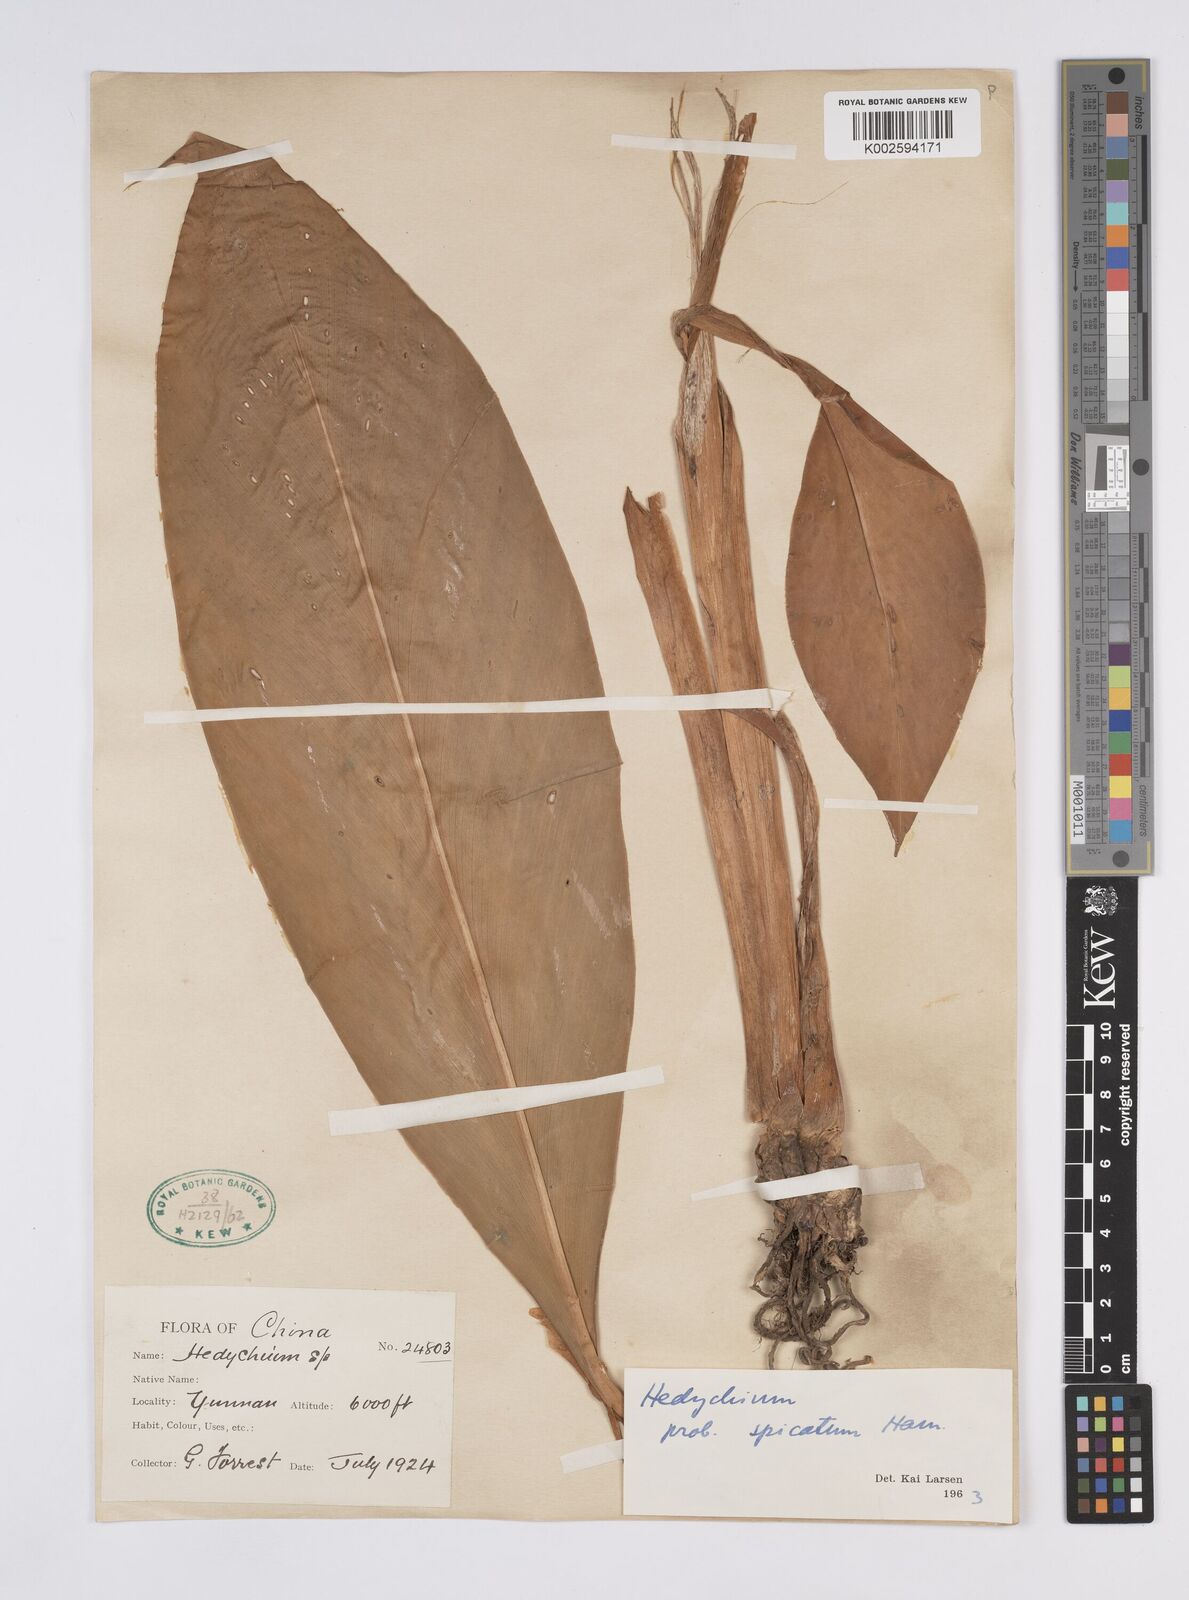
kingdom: Plantae
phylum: Tracheophyta
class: Liliopsida
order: Zingiberales
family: Zingiberaceae
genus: Hedychium
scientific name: Hedychium spicatum
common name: Spiked ginger-lily
